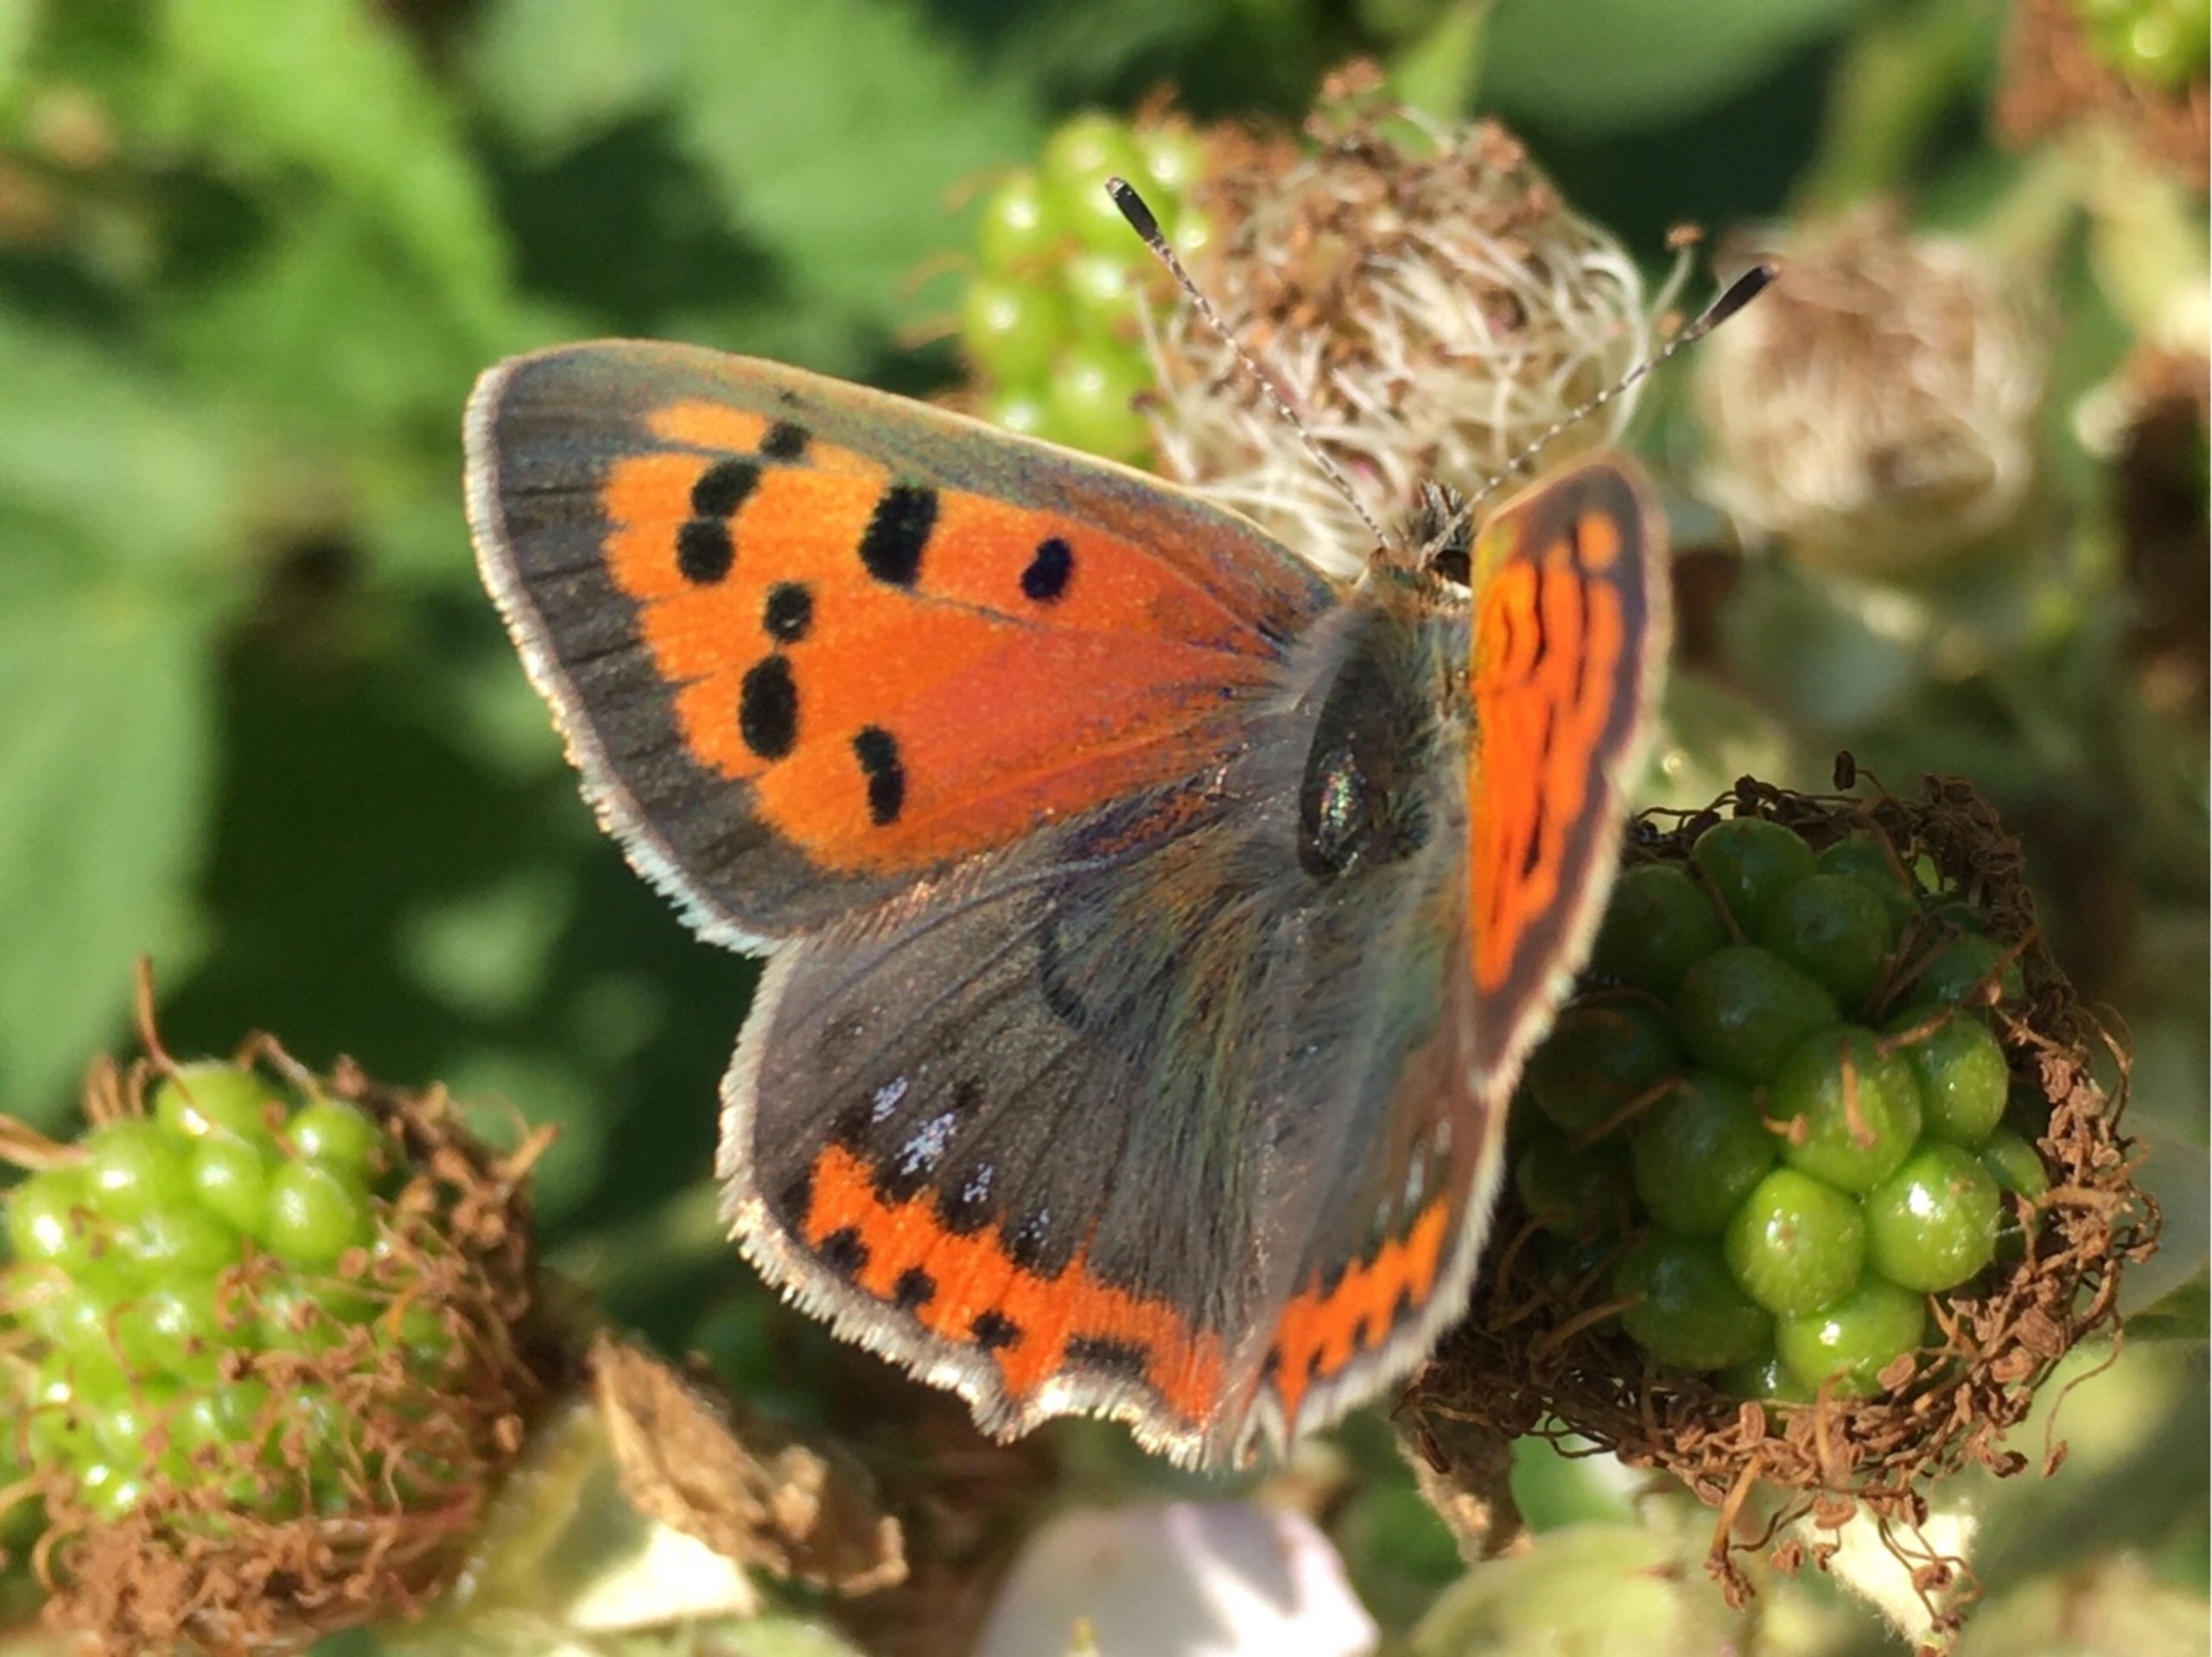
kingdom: Animalia
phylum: Arthropoda
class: Insecta
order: Lepidoptera
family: Lycaenidae
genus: Lycaena
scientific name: Lycaena phlaeas
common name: Lille ildfugl
